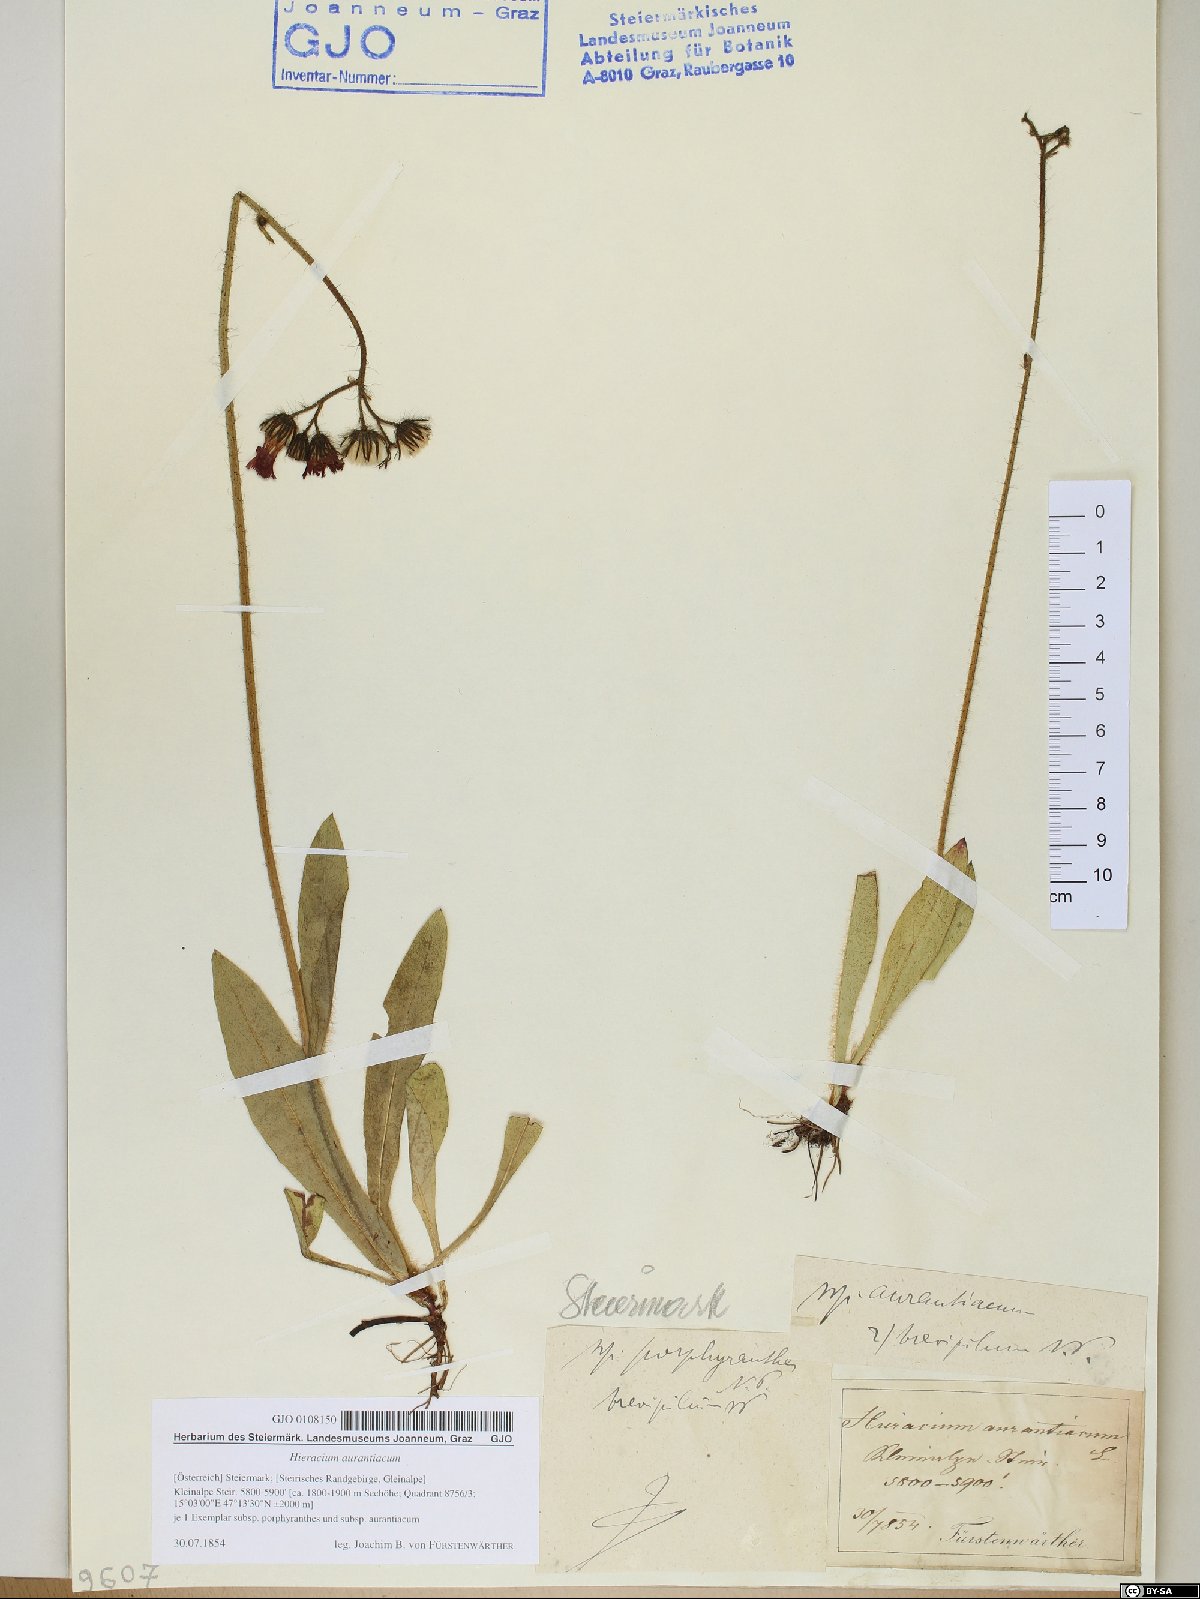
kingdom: Plantae
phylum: Tracheophyta
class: Magnoliopsida
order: Asterales
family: Asteraceae
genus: Pilosella
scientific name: Pilosella aurantiaca
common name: Fox-and-cubs
